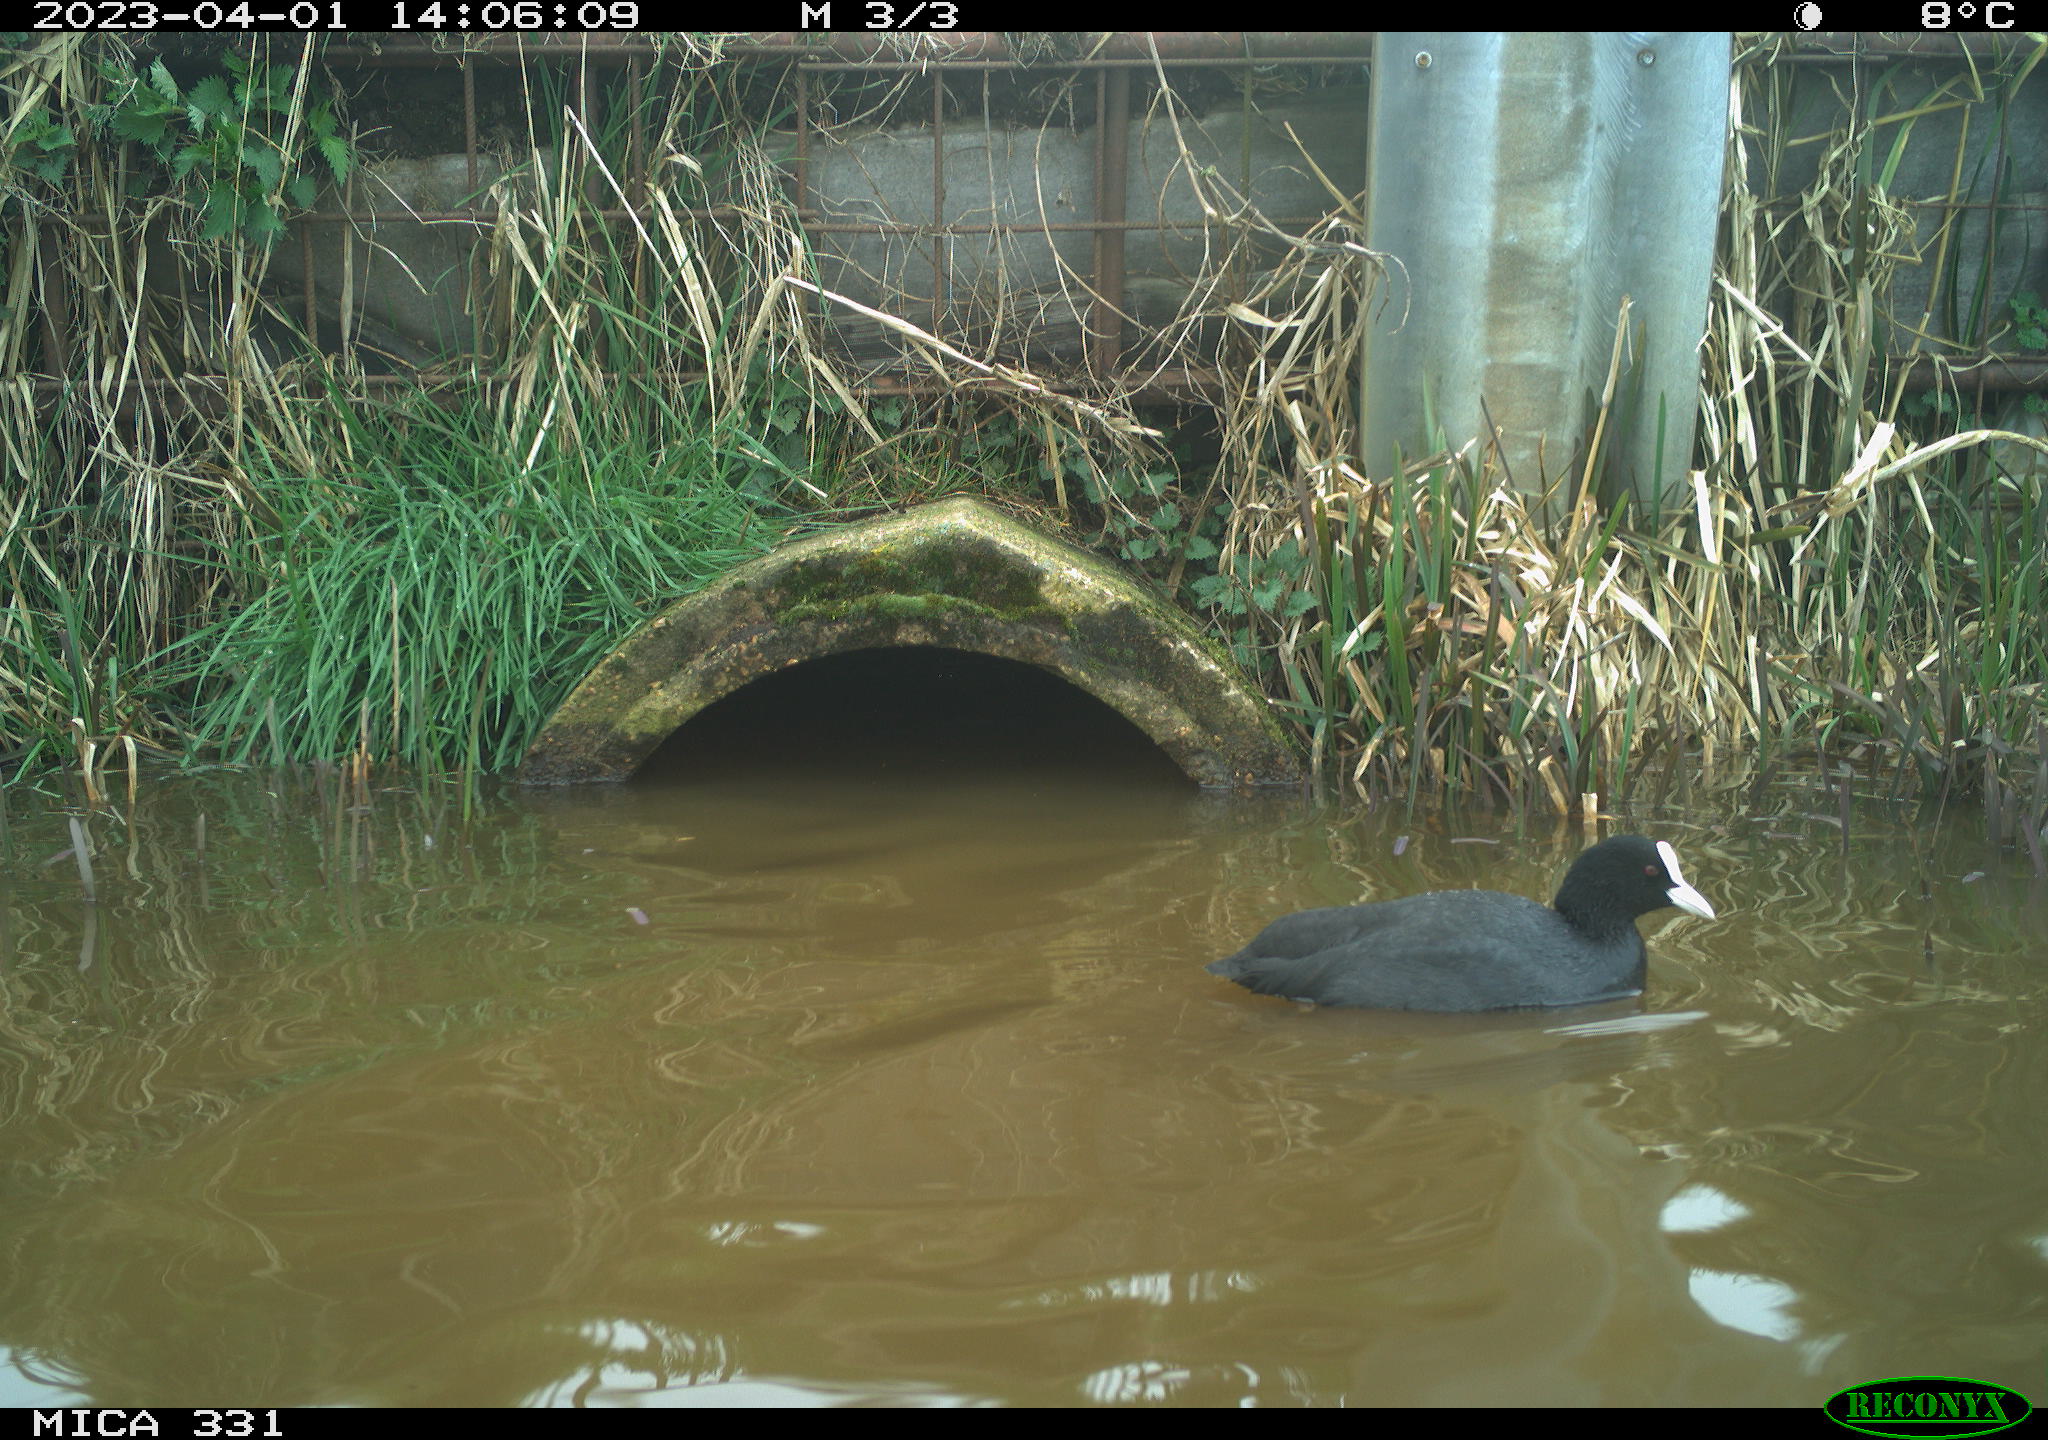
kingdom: Animalia
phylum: Chordata
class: Aves
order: Gruiformes
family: Rallidae
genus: Fulica
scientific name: Fulica atra
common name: Eurasian coot
